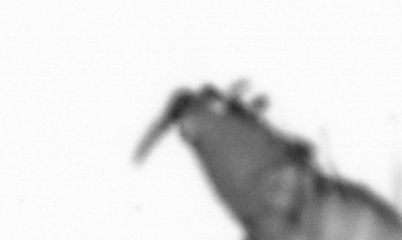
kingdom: Animalia
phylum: Annelida
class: Polychaeta
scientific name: Polychaeta
